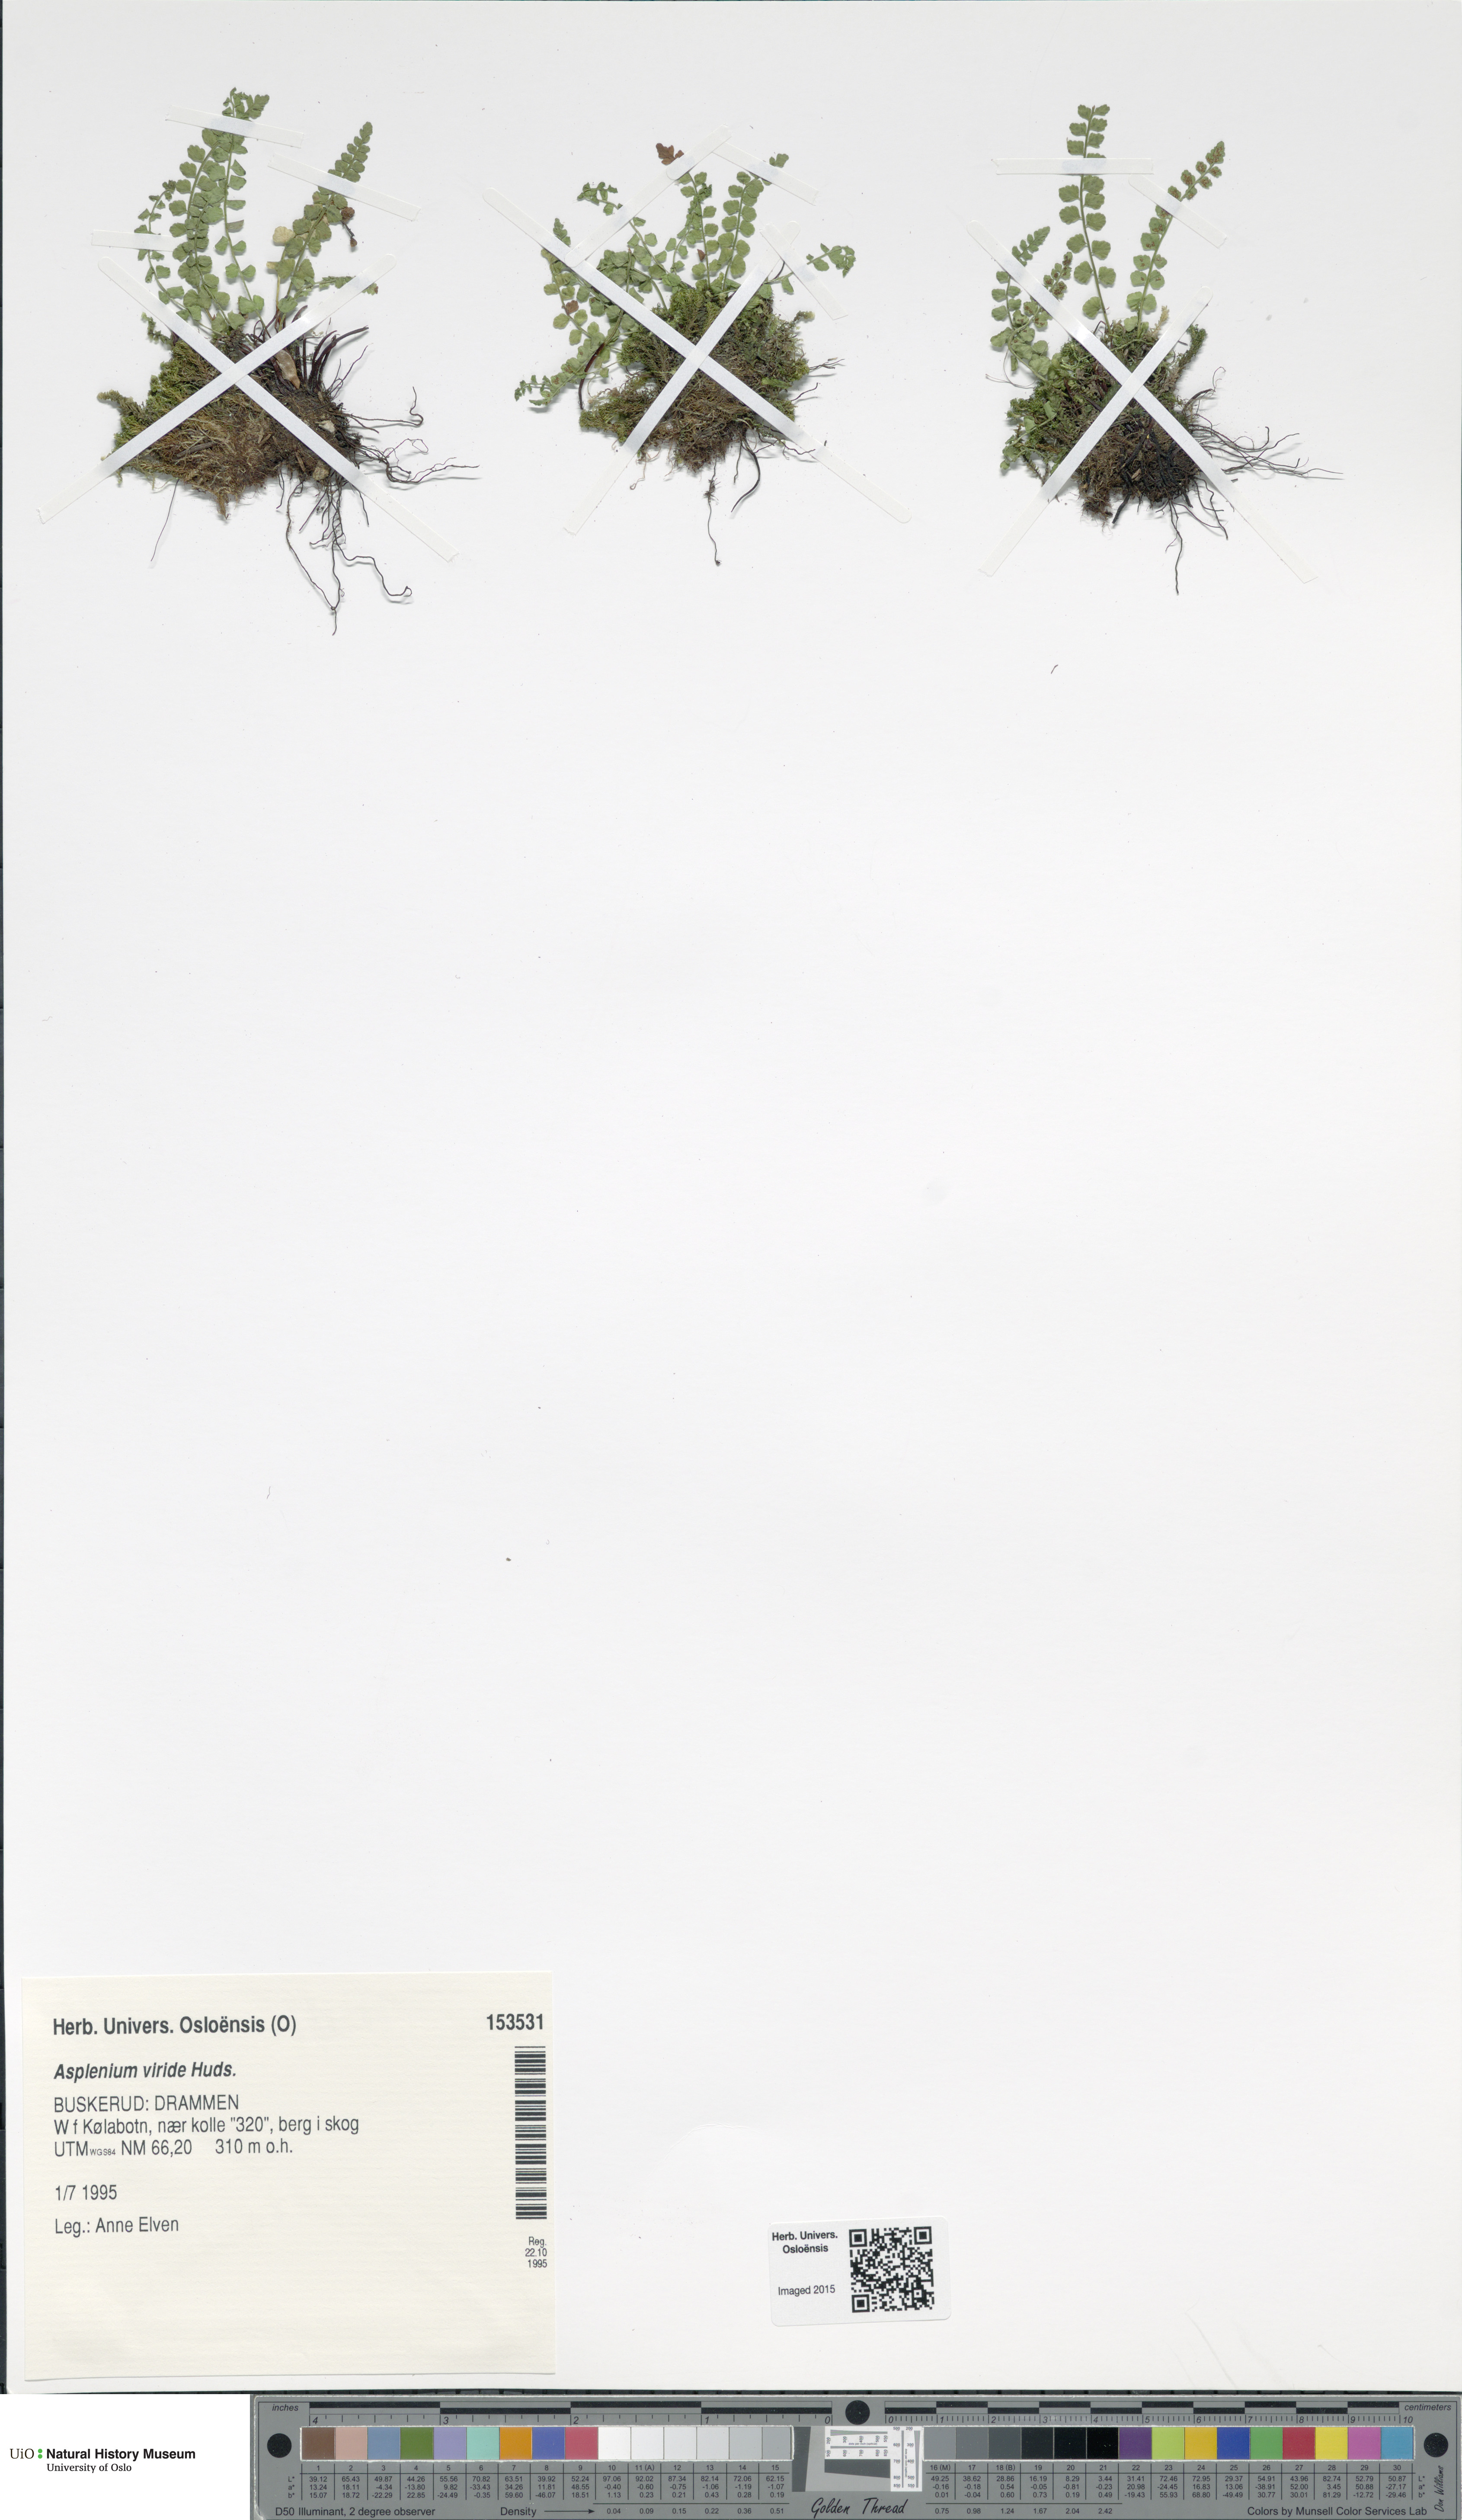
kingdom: Plantae
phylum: Tracheophyta
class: Polypodiopsida
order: Polypodiales
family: Aspleniaceae
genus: Asplenium
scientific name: Asplenium viride
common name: Green spleenwort
